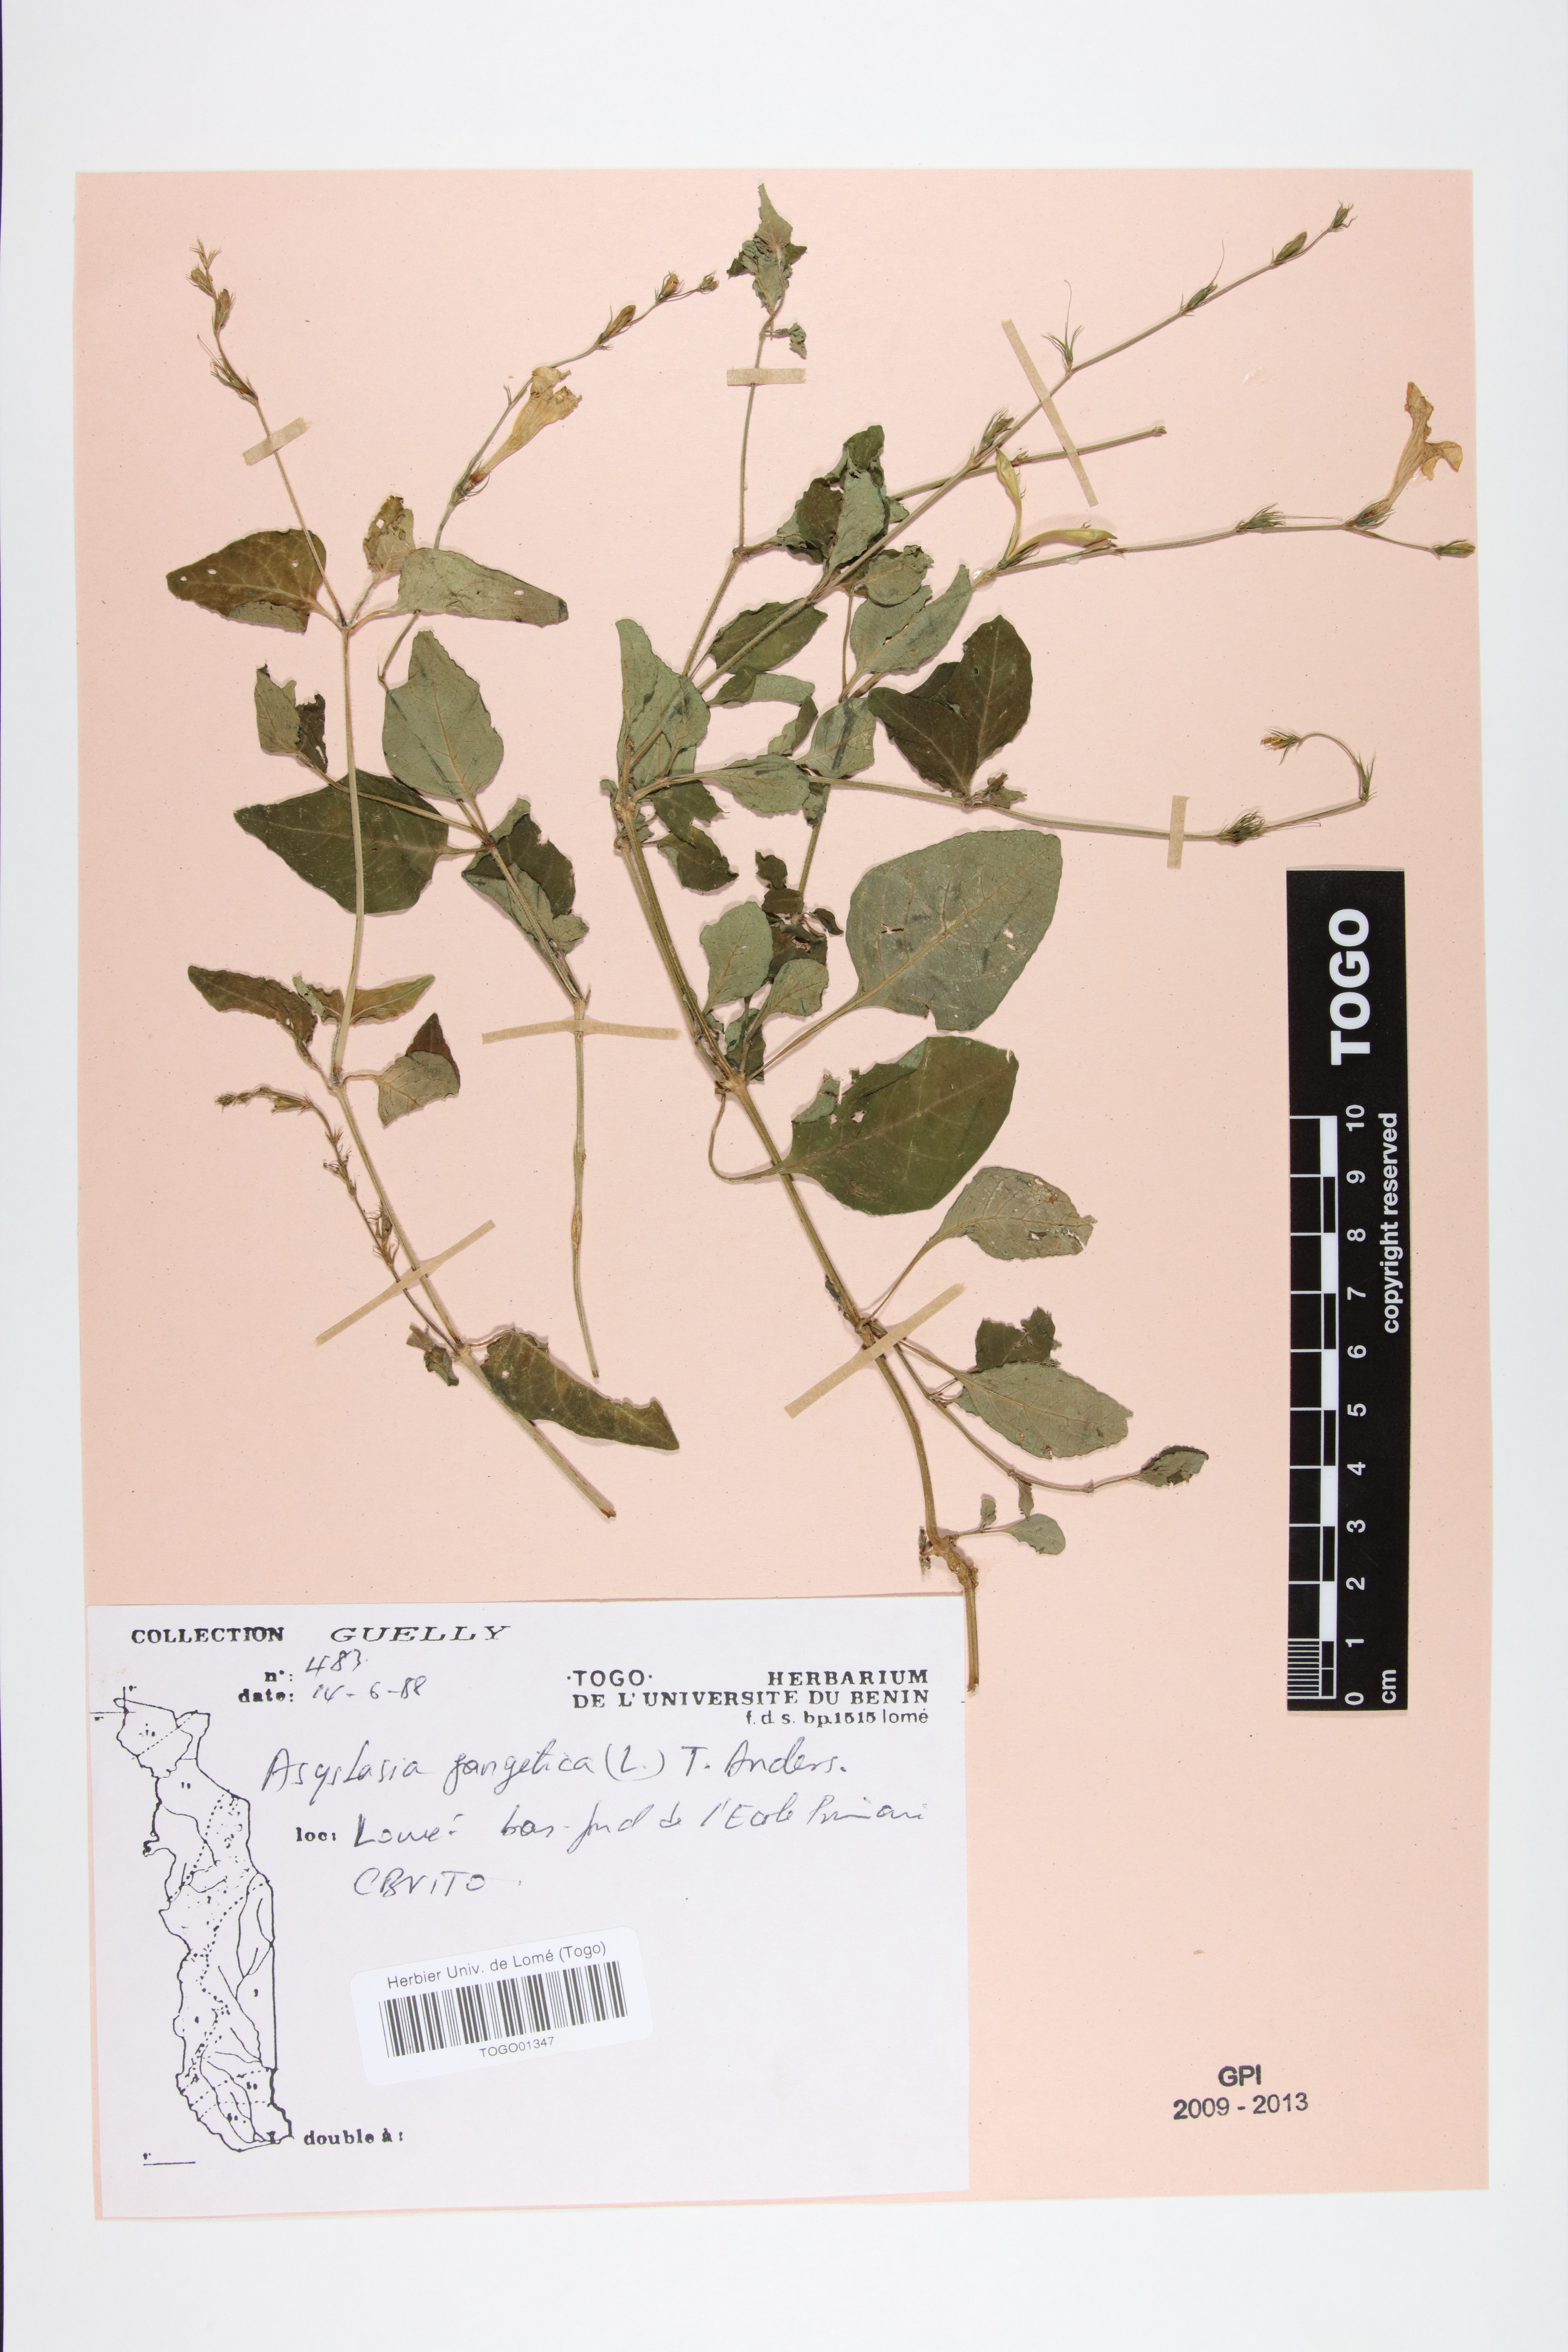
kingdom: Plantae
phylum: Tracheophyta
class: Magnoliopsida
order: Lamiales
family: Acanthaceae
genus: Asystasia
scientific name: Asystasia gangetica
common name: Chinese violet
